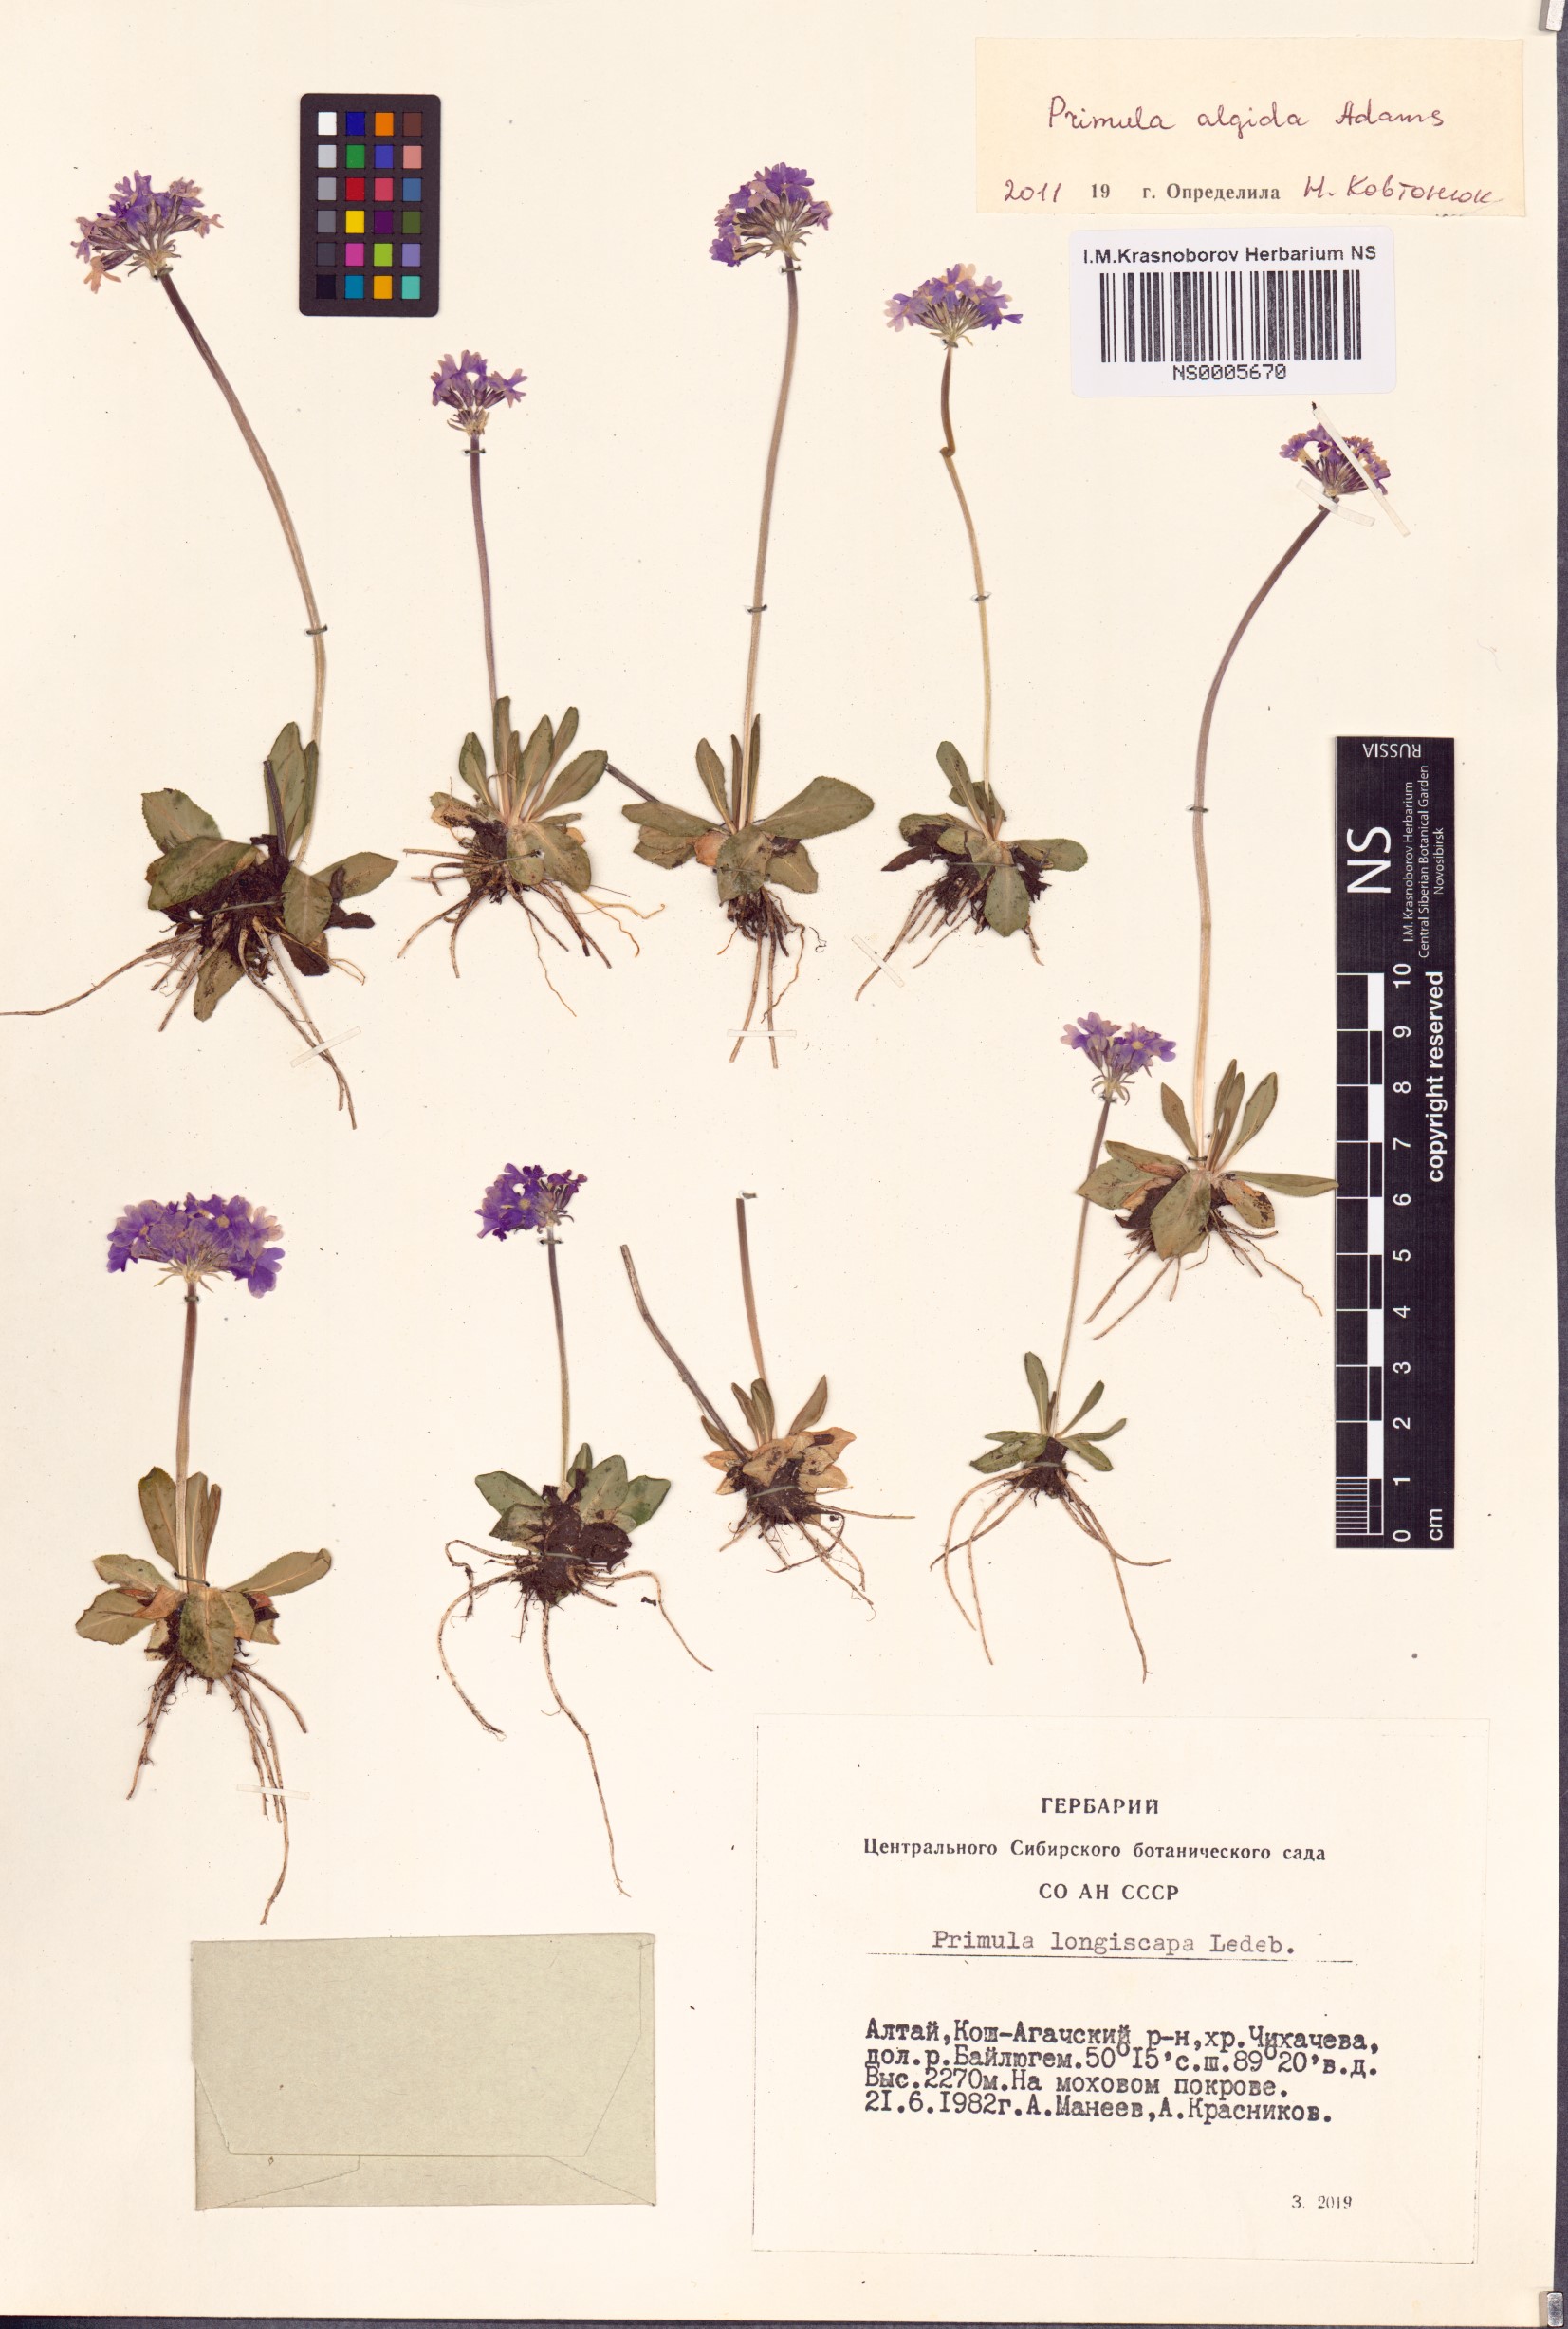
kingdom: Plantae
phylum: Tracheophyta
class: Magnoliopsida
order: Ericales
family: Primulaceae
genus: Primula
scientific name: Primula algida
